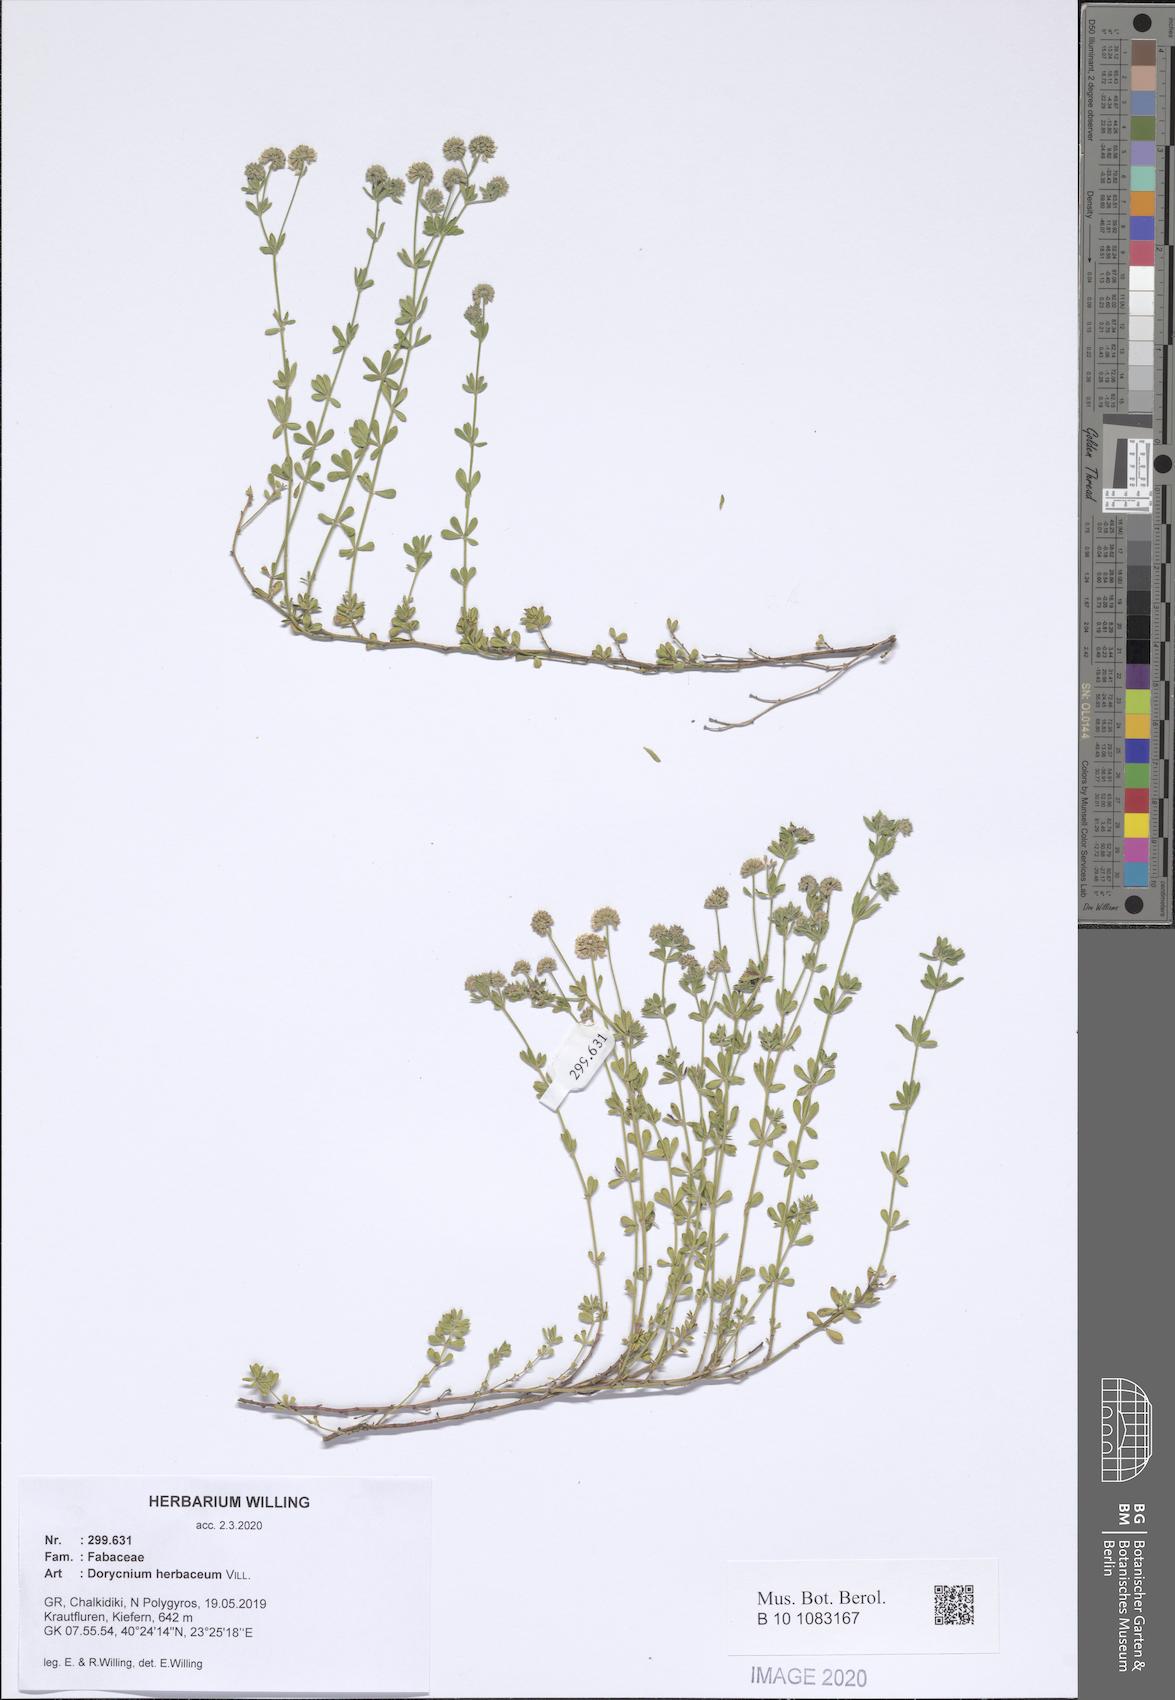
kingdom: Plantae
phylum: Tracheophyta
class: Magnoliopsida
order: Fabales
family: Fabaceae
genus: Lotus
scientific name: Lotus herbaceus
